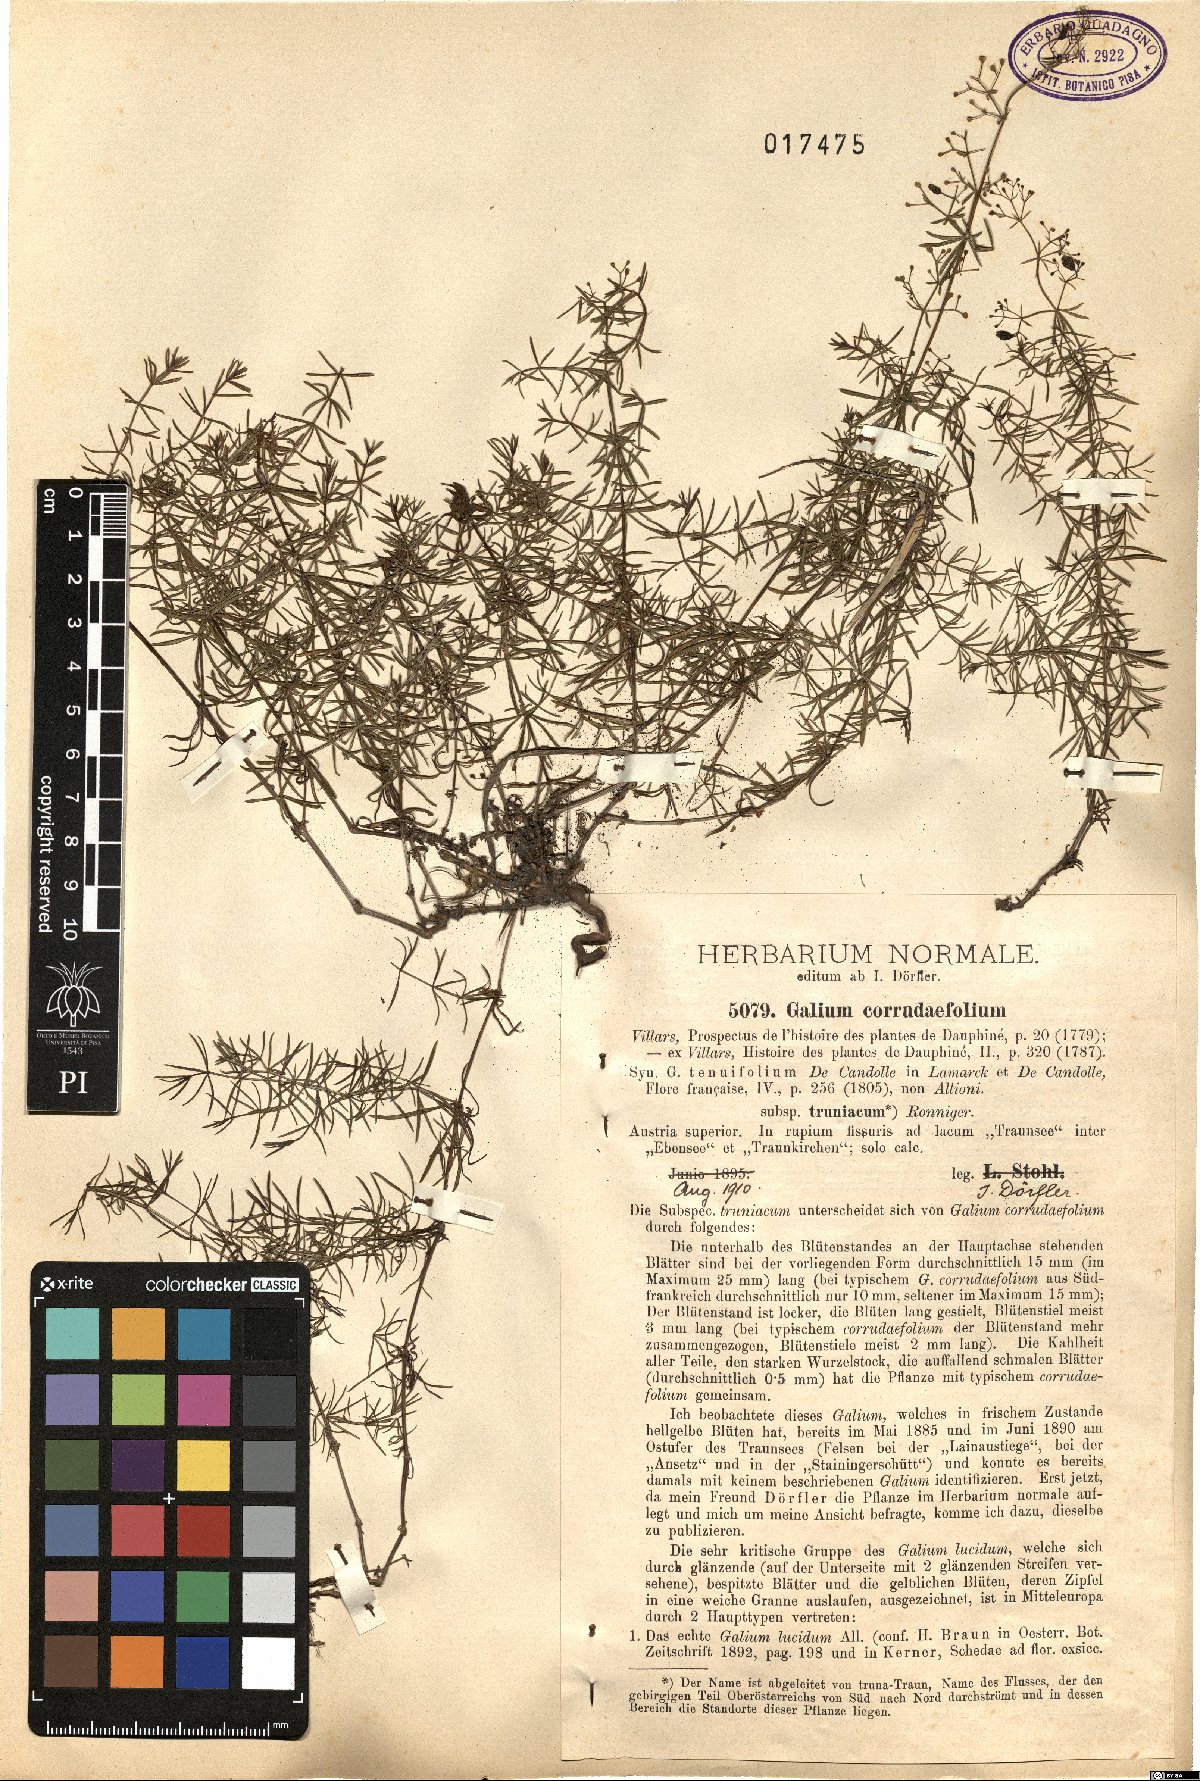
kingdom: Plantae
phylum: Tracheophyta
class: Magnoliopsida
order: Gentianales
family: Rubiaceae
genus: Galium
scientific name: Galium lucidum
